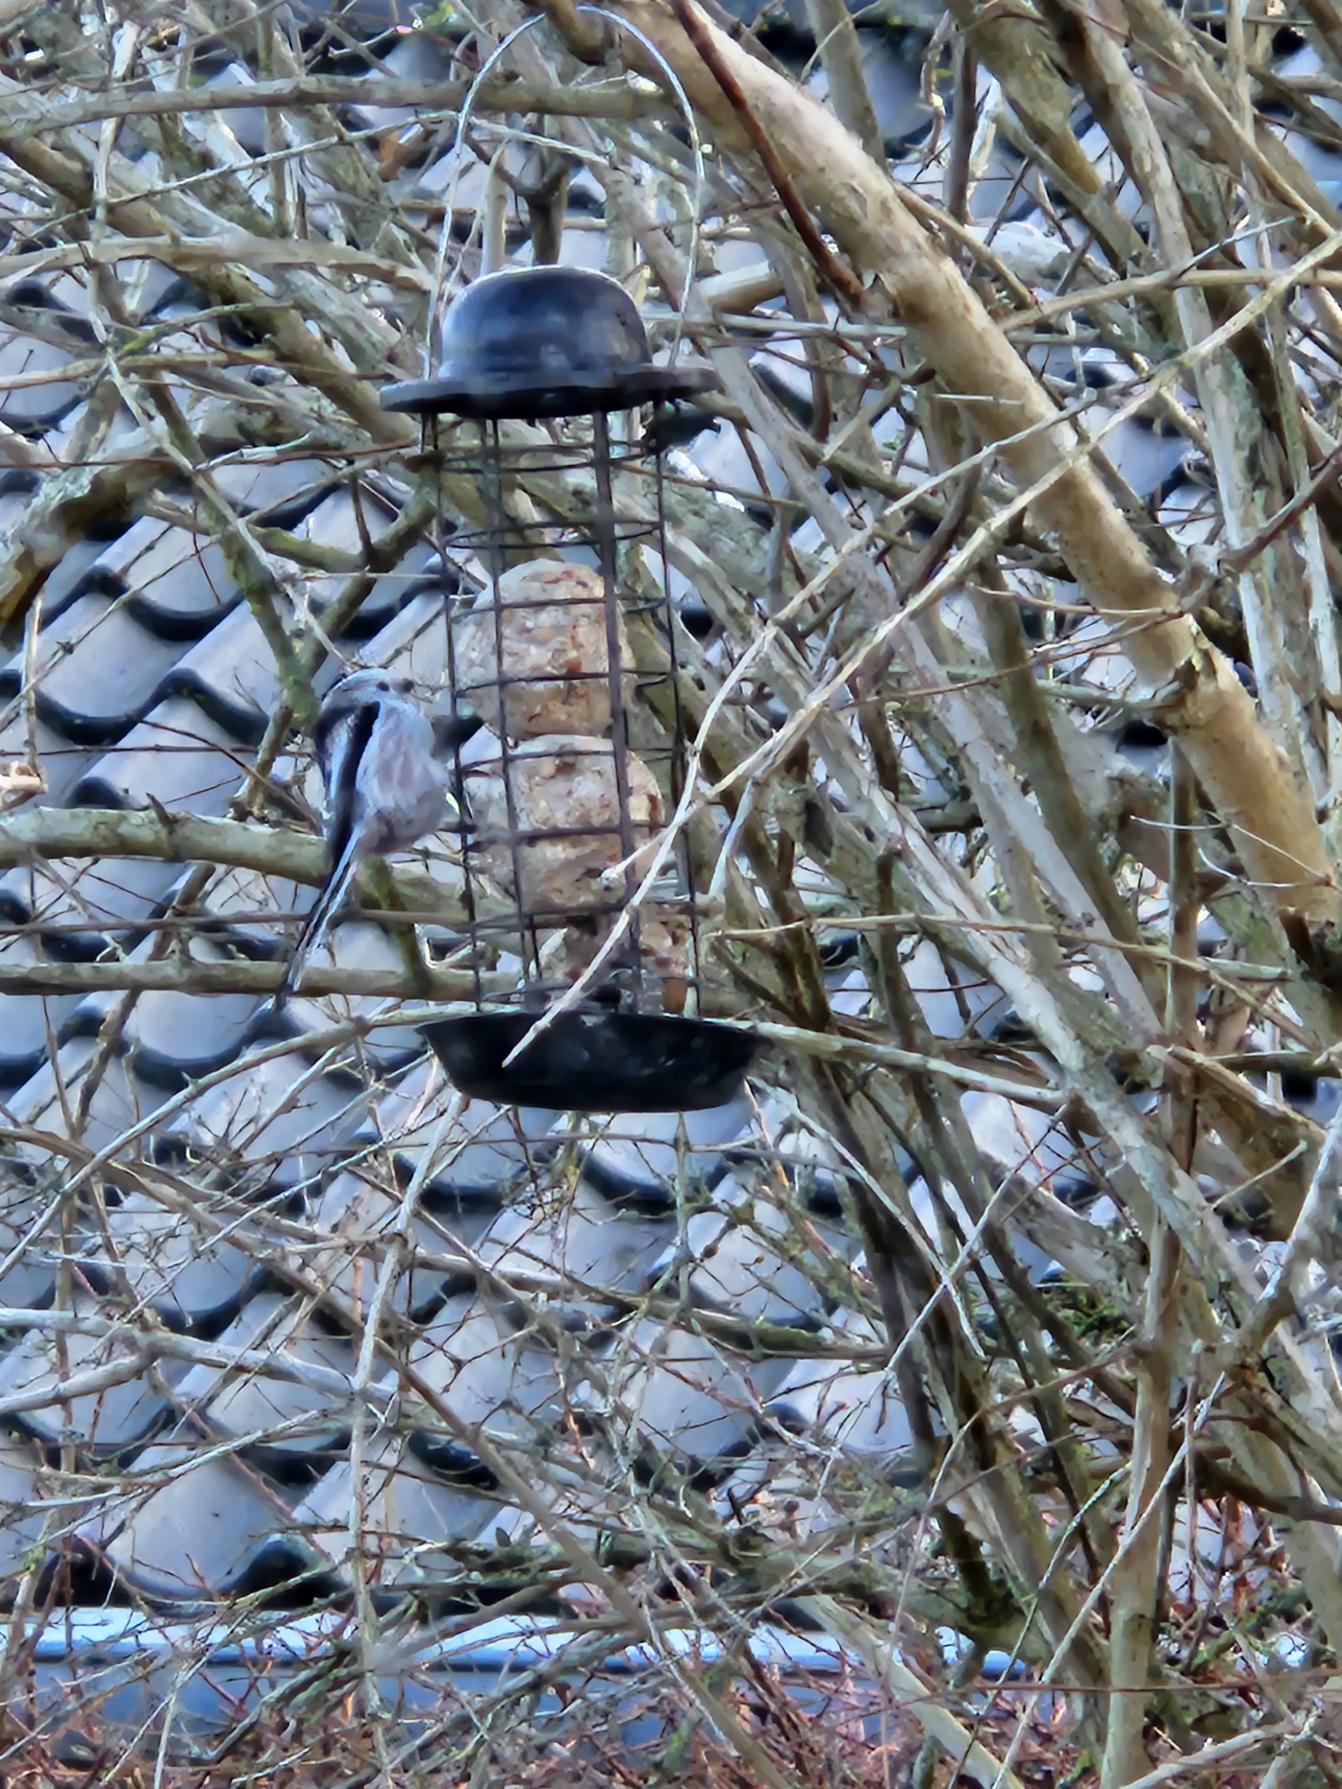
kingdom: Animalia
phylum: Chordata
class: Aves
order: Passeriformes
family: Aegithalidae
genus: Aegithalos
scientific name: Aegithalos caudatus
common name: Halemejse
